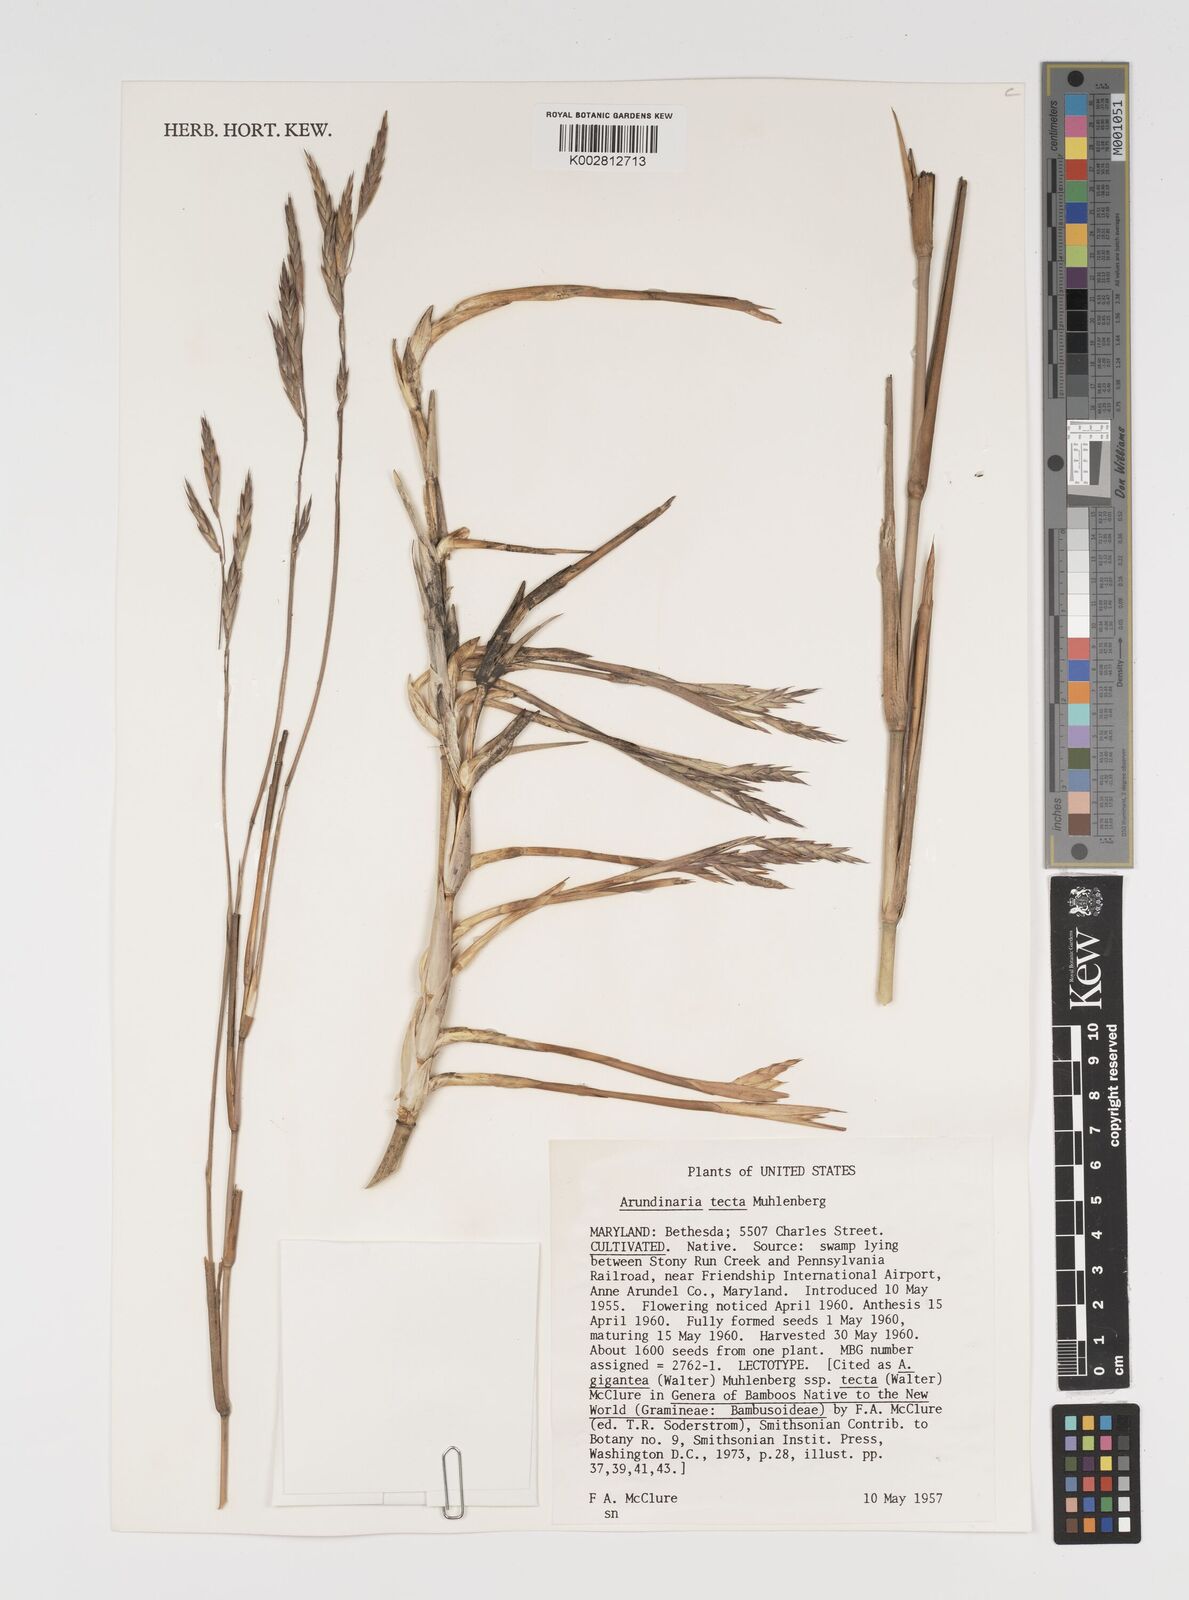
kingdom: Plantae
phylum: Tracheophyta
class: Liliopsida
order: Poales
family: Poaceae
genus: Arundinaria
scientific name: Arundinaria tecta
